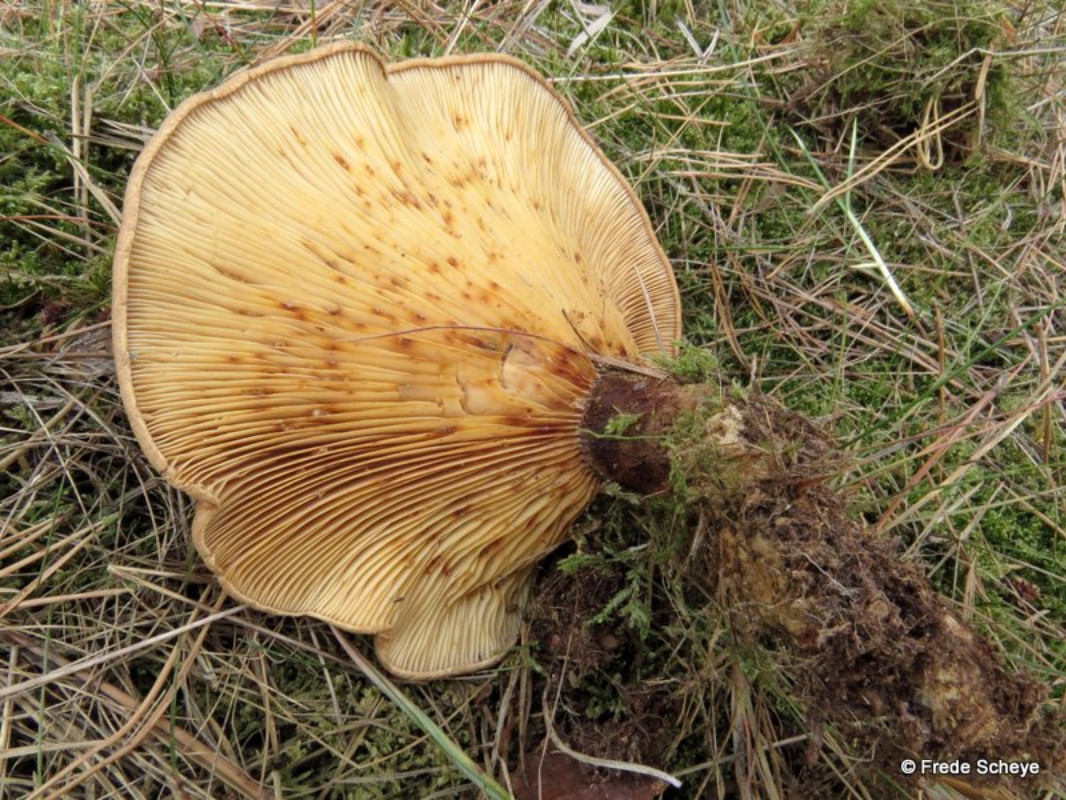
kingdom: Fungi
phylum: Basidiomycota
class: Agaricomycetes
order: Boletales
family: Tapinellaceae
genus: Tapinella
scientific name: Tapinella atrotomentosa
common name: sortfiltet viftesvamp
